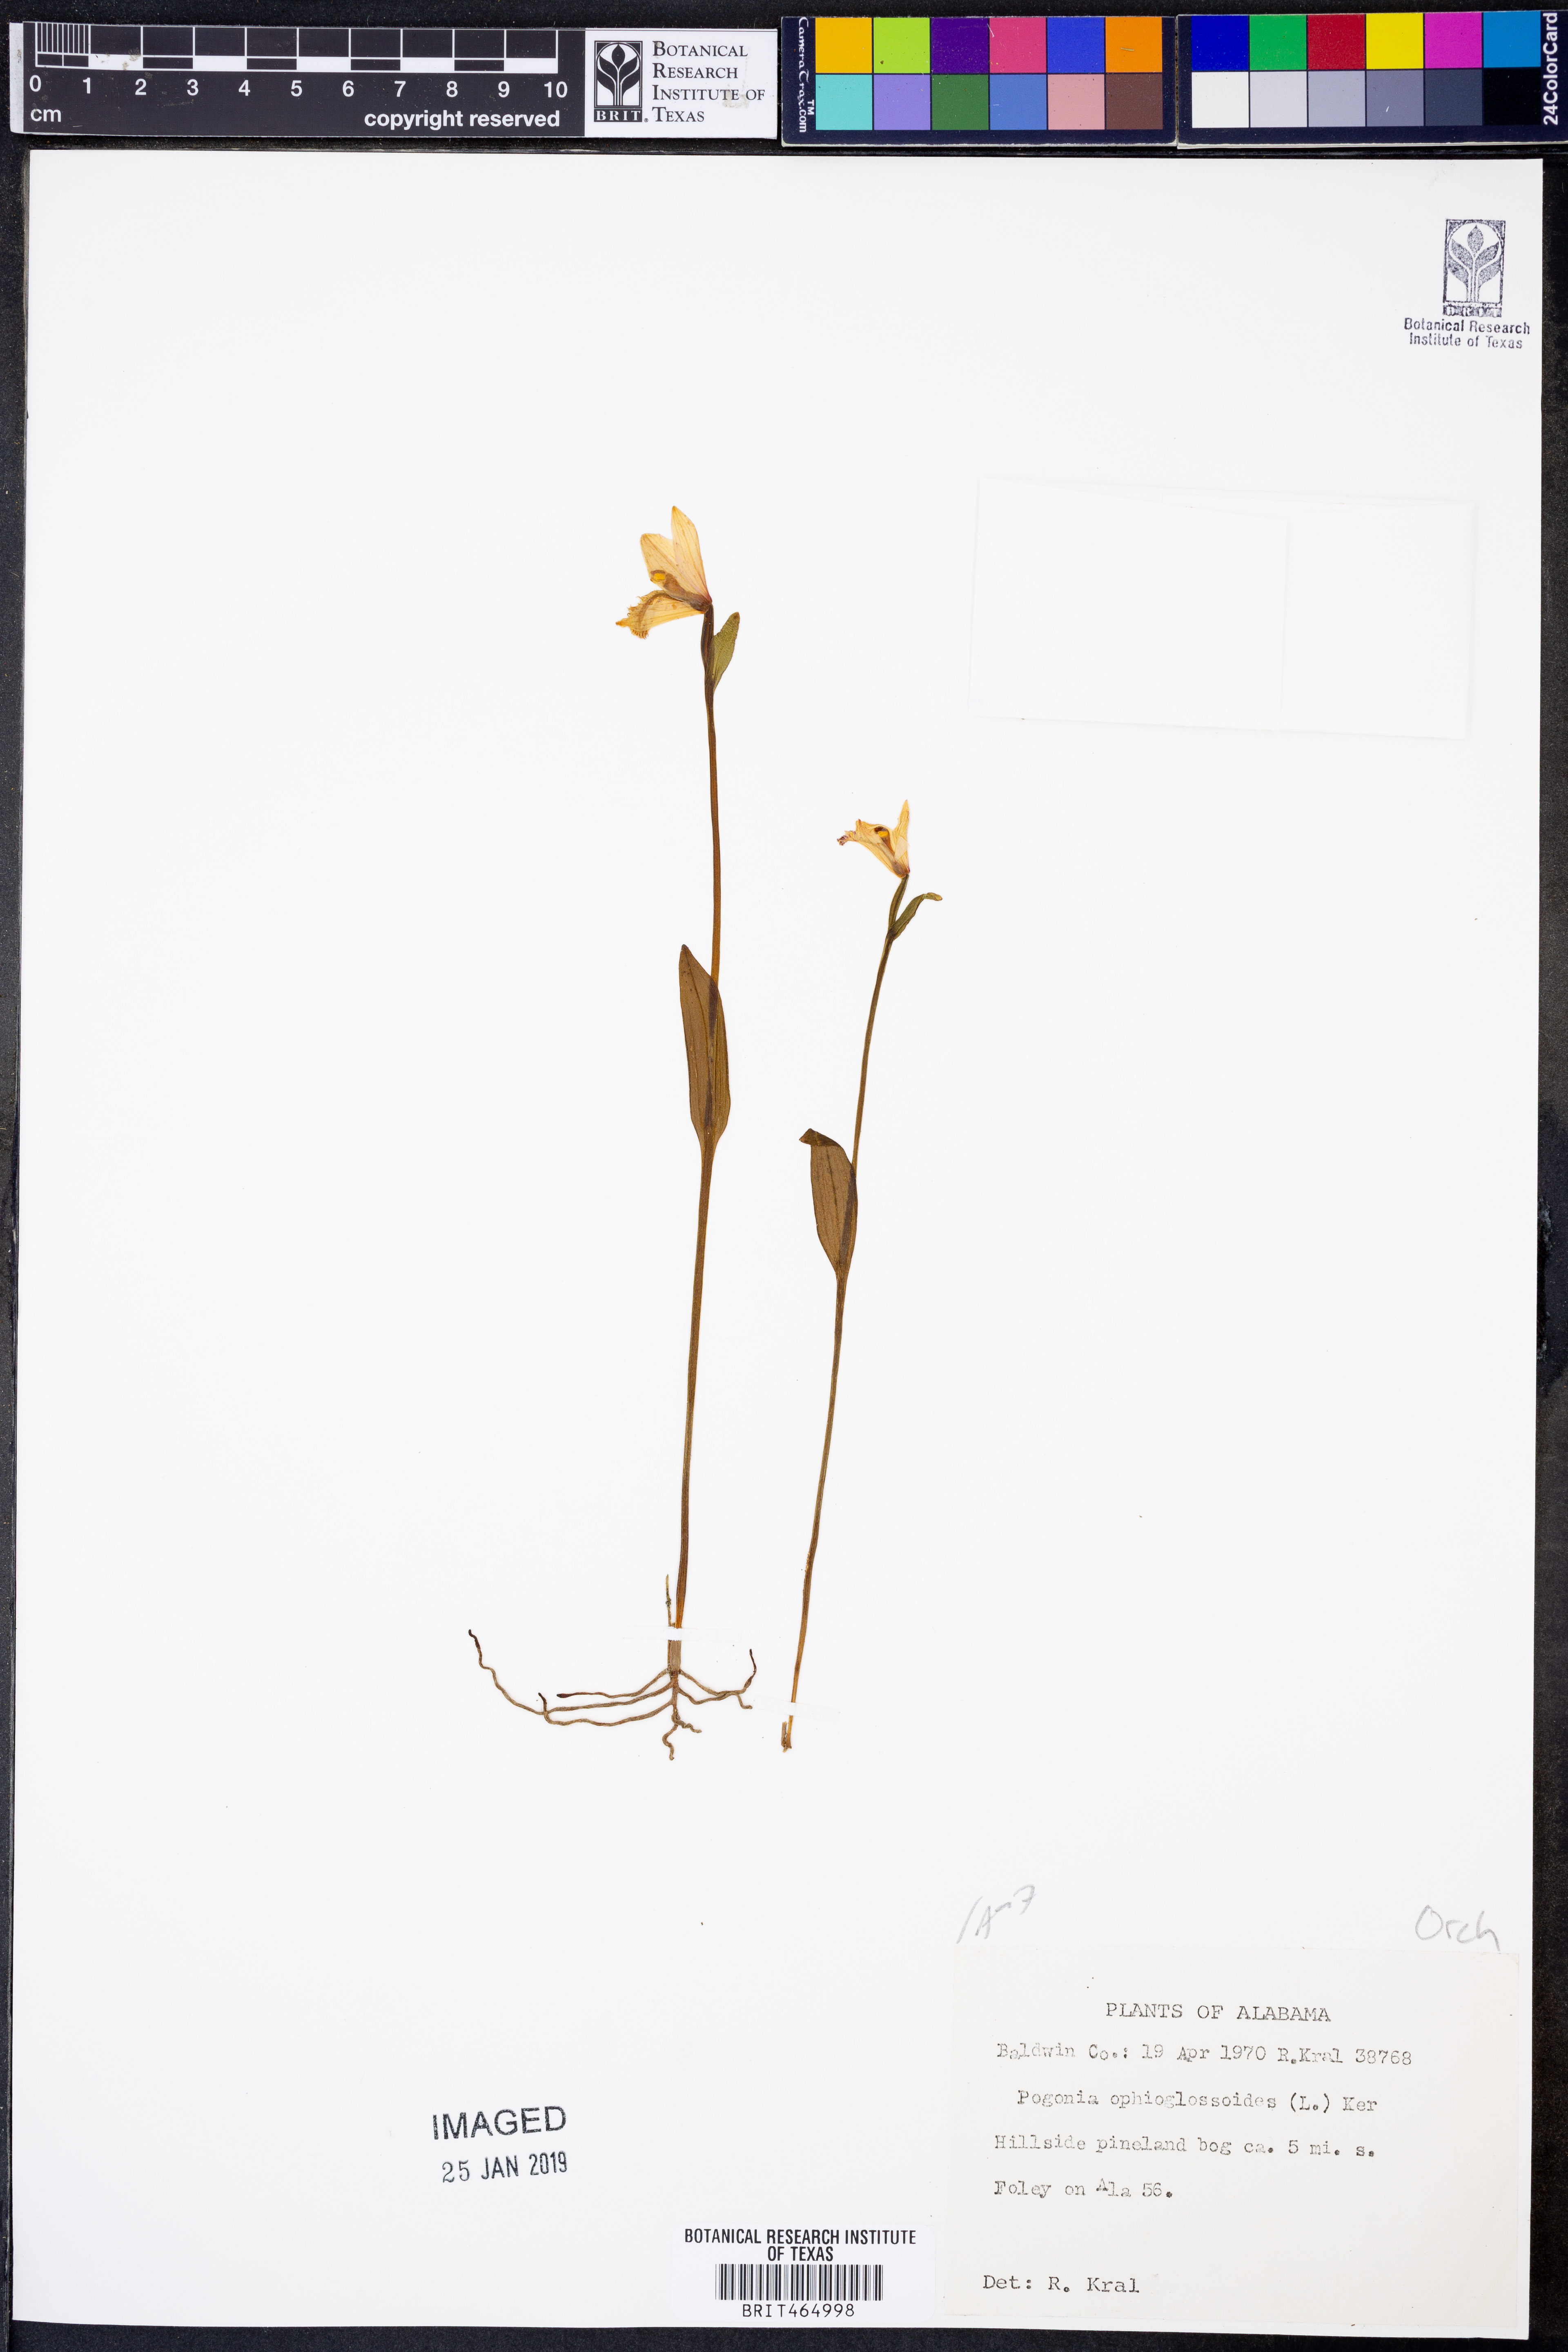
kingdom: Plantae
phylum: Tracheophyta
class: Liliopsida
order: Asparagales
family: Orchidaceae
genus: Pogonia
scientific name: Pogonia ophioglossoides
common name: Rose pogonia
